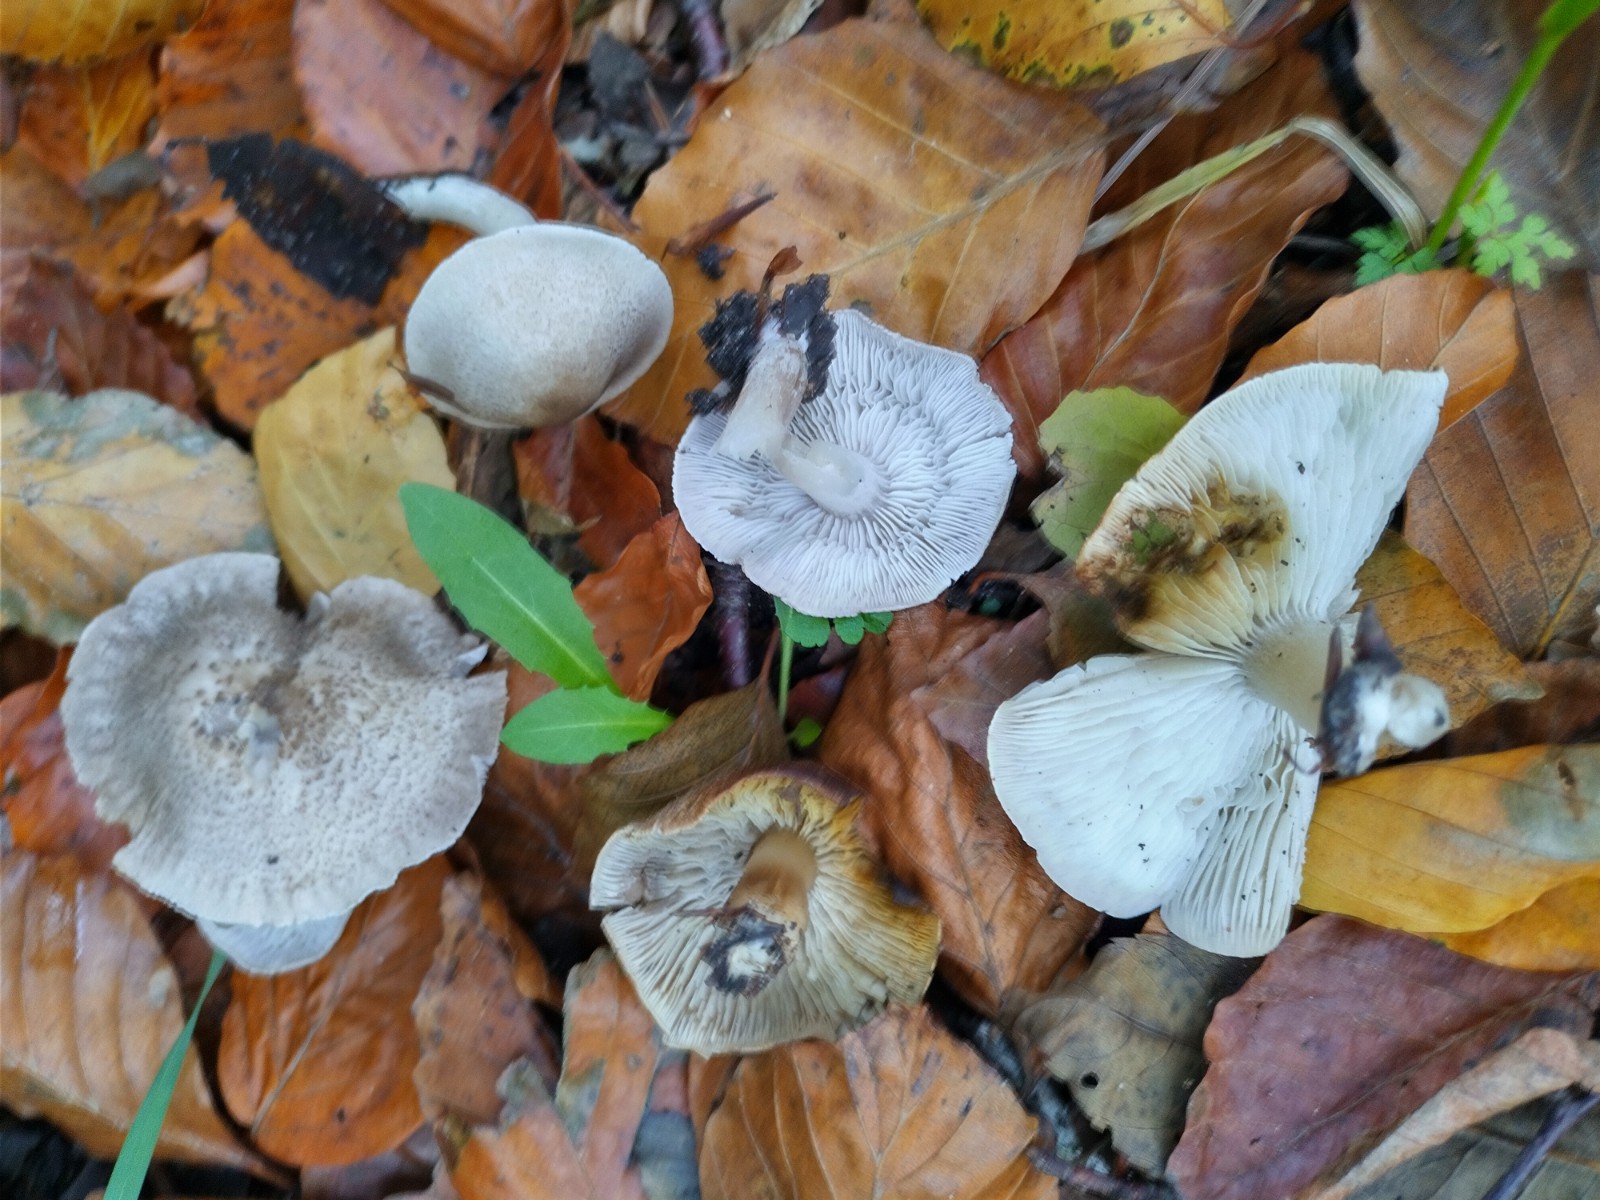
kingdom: Fungi
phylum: Basidiomycota
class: Agaricomycetes
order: Agaricales
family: Tricholomataceae
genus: Tricholoma
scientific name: Tricholoma scalpturatum
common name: gulplettet ridderhat
